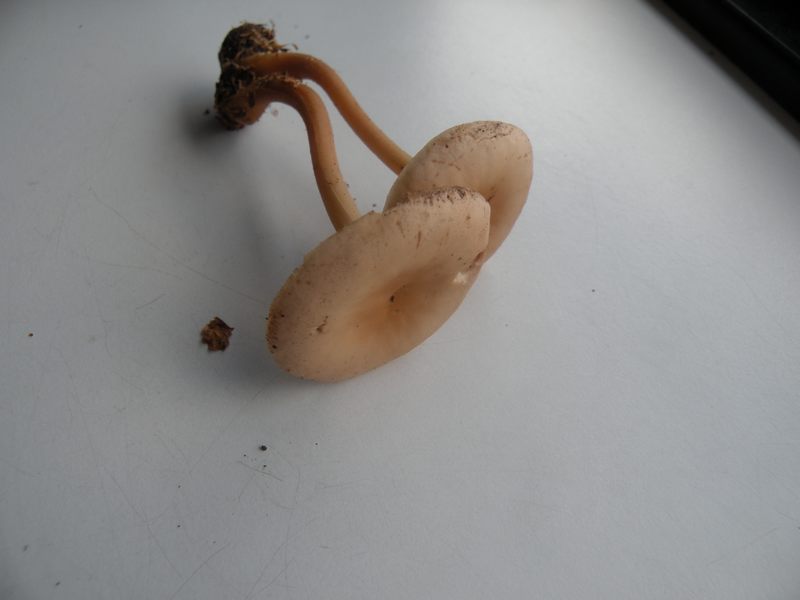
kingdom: Fungi
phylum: Basidiomycota
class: Agaricomycetes
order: Agaricales
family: Omphalotaceae
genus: Gymnopus
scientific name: Gymnopus aquosus
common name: bleg fladhat
